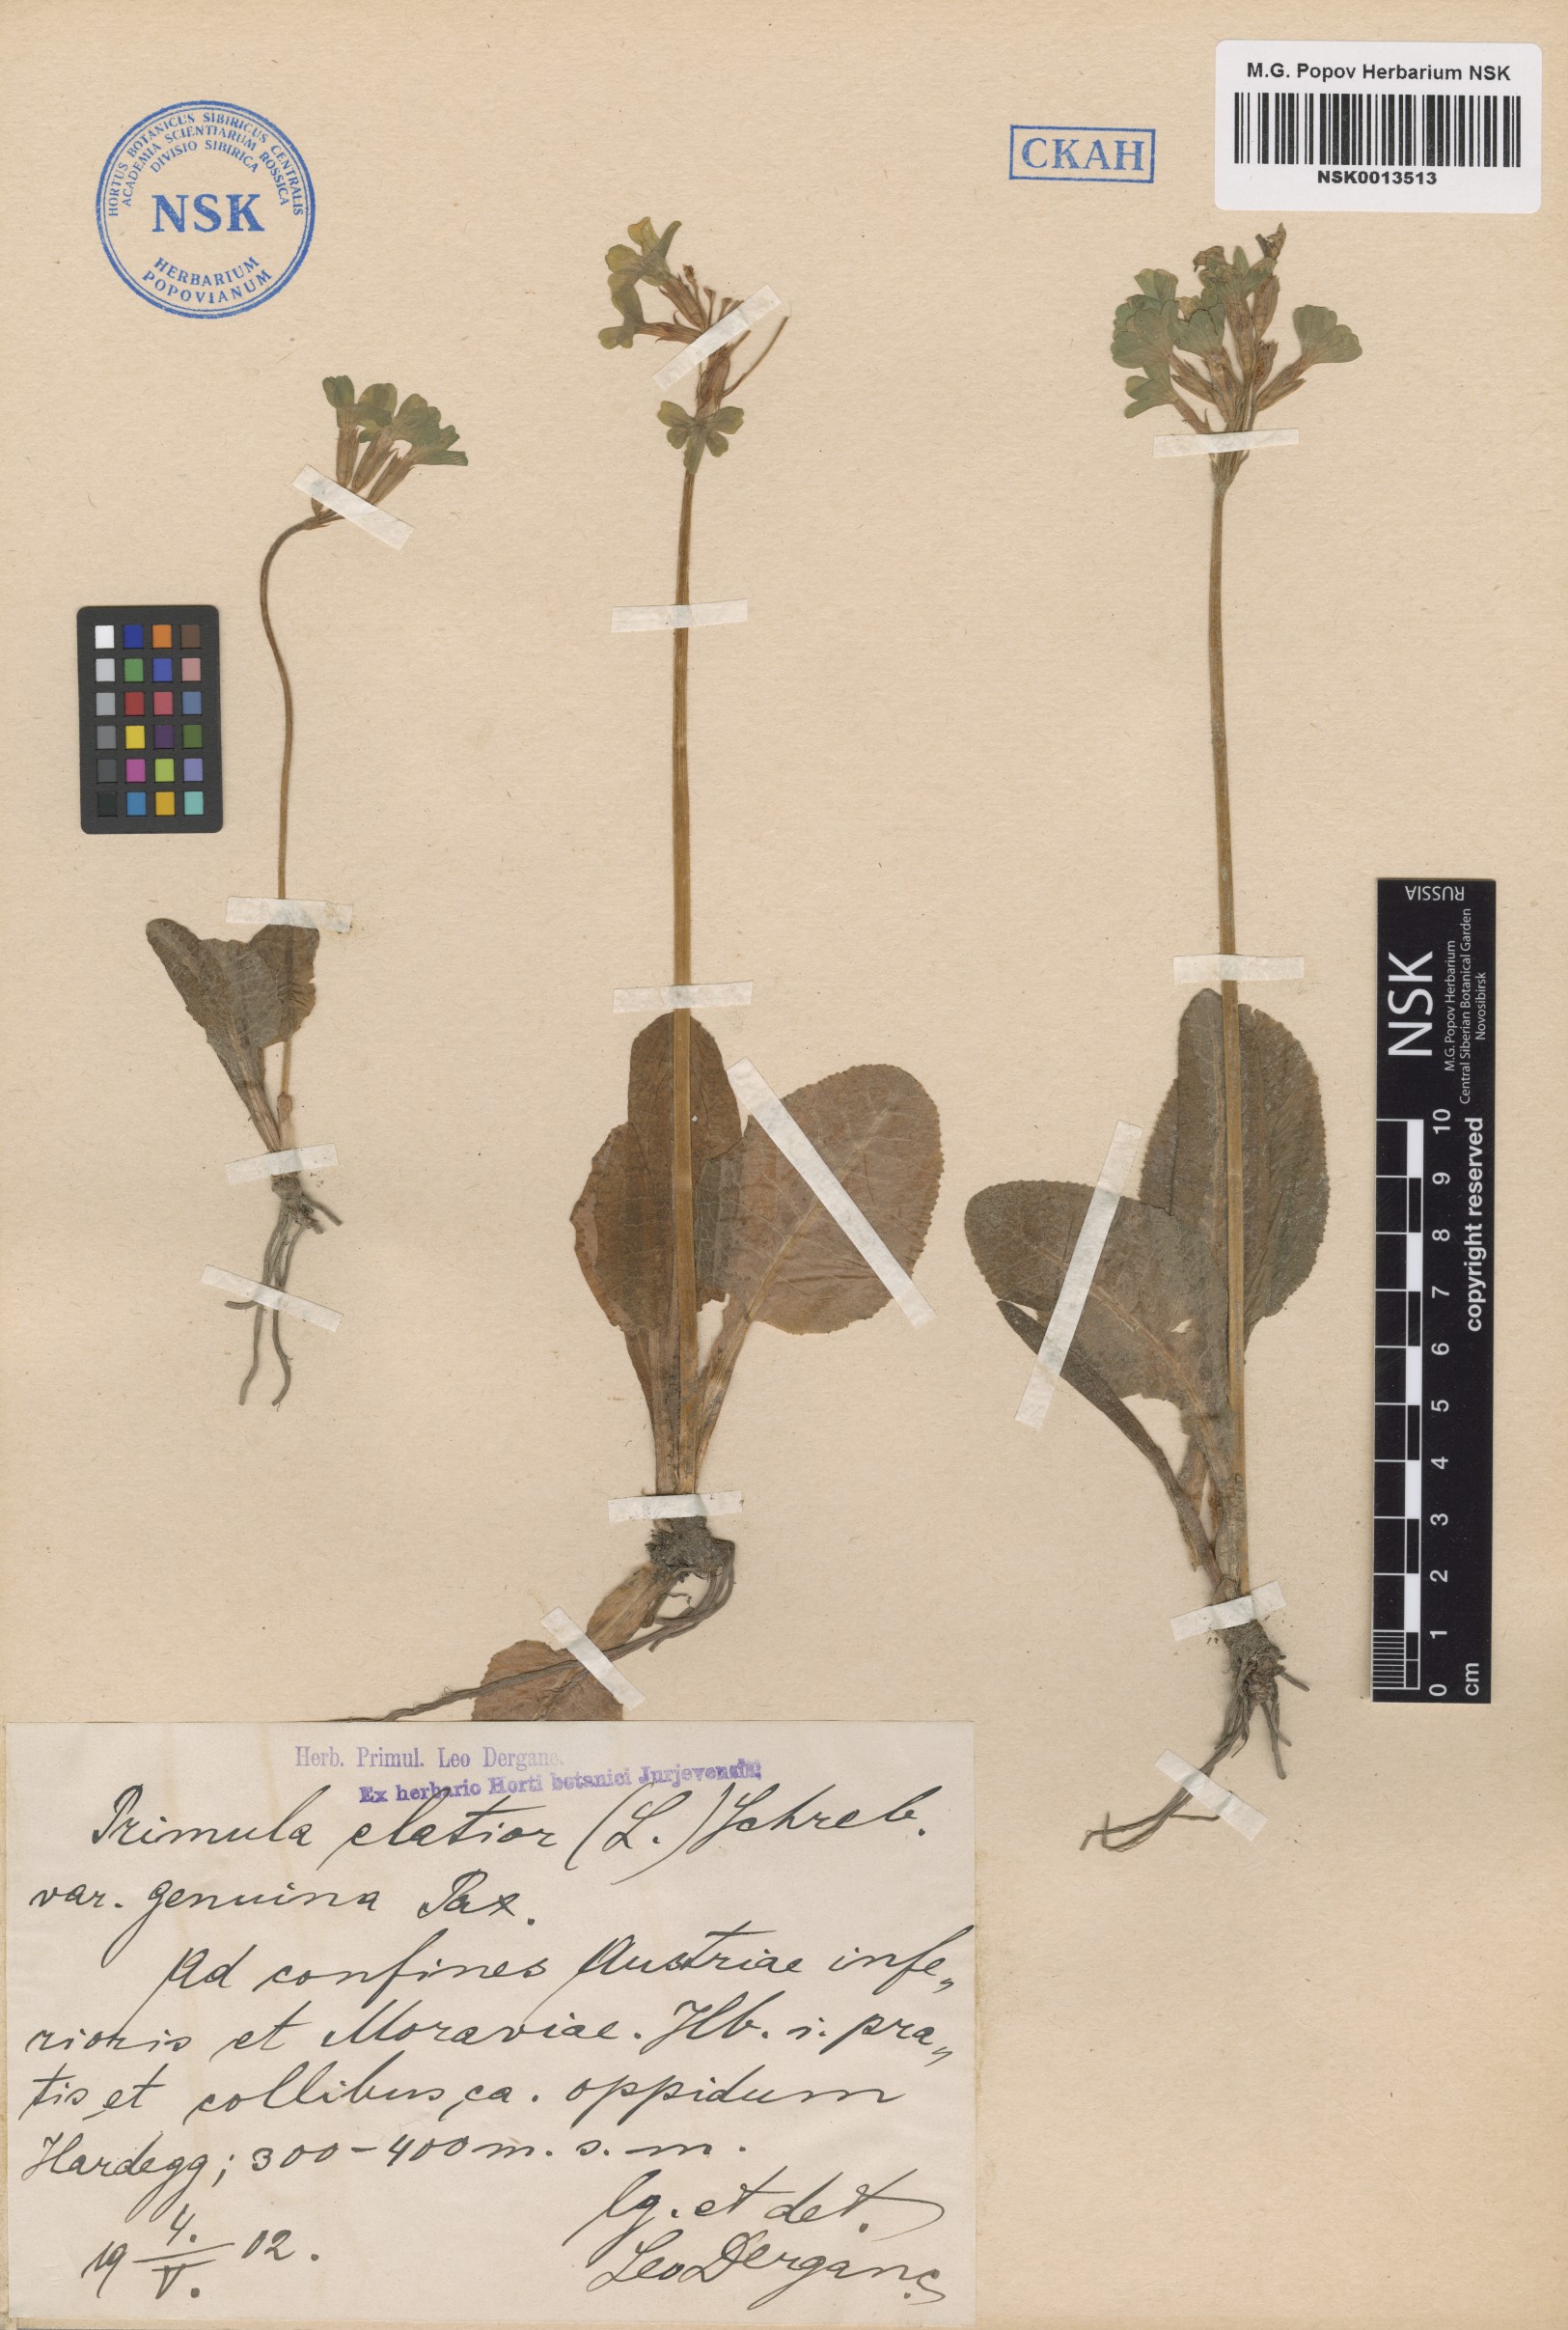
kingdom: Plantae
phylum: Tracheophyta
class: Magnoliopsida
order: Ericales
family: Primulaceae
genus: Primula
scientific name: Primula elatior
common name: Oxlip
